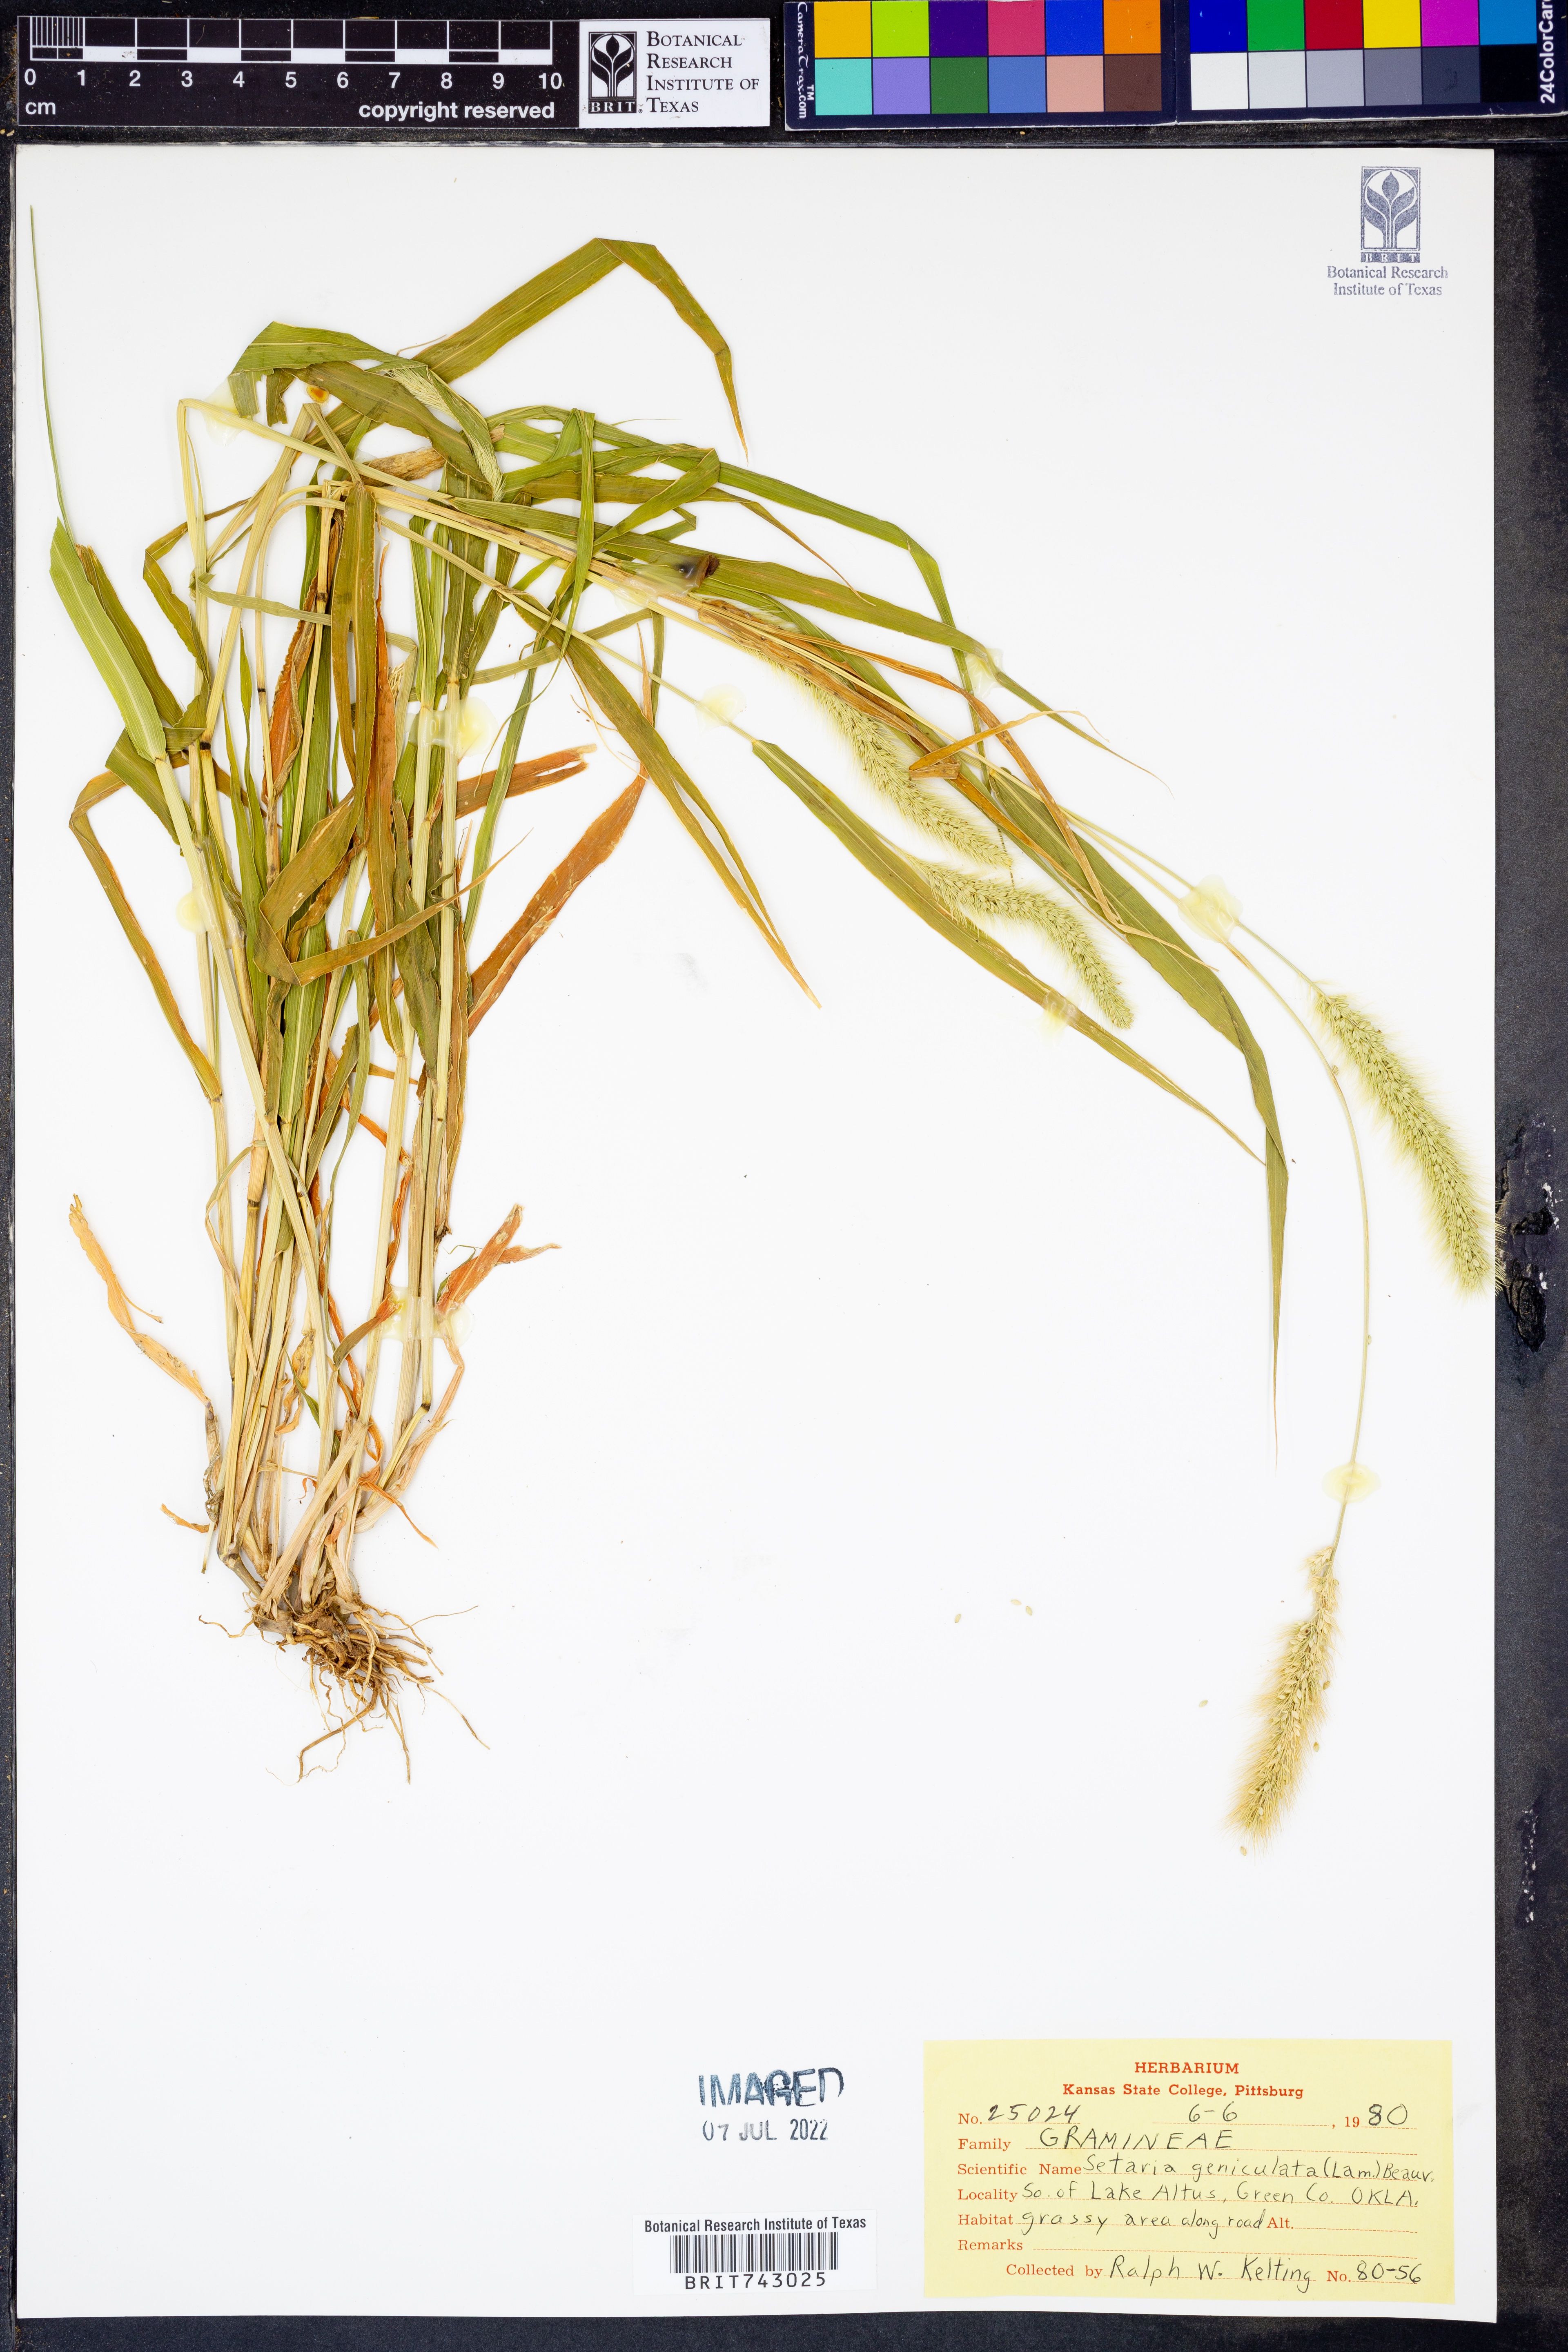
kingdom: Plantae
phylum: Tracheophyta
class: Liliopsida
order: Poales
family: Poaceae
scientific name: Poaceae
